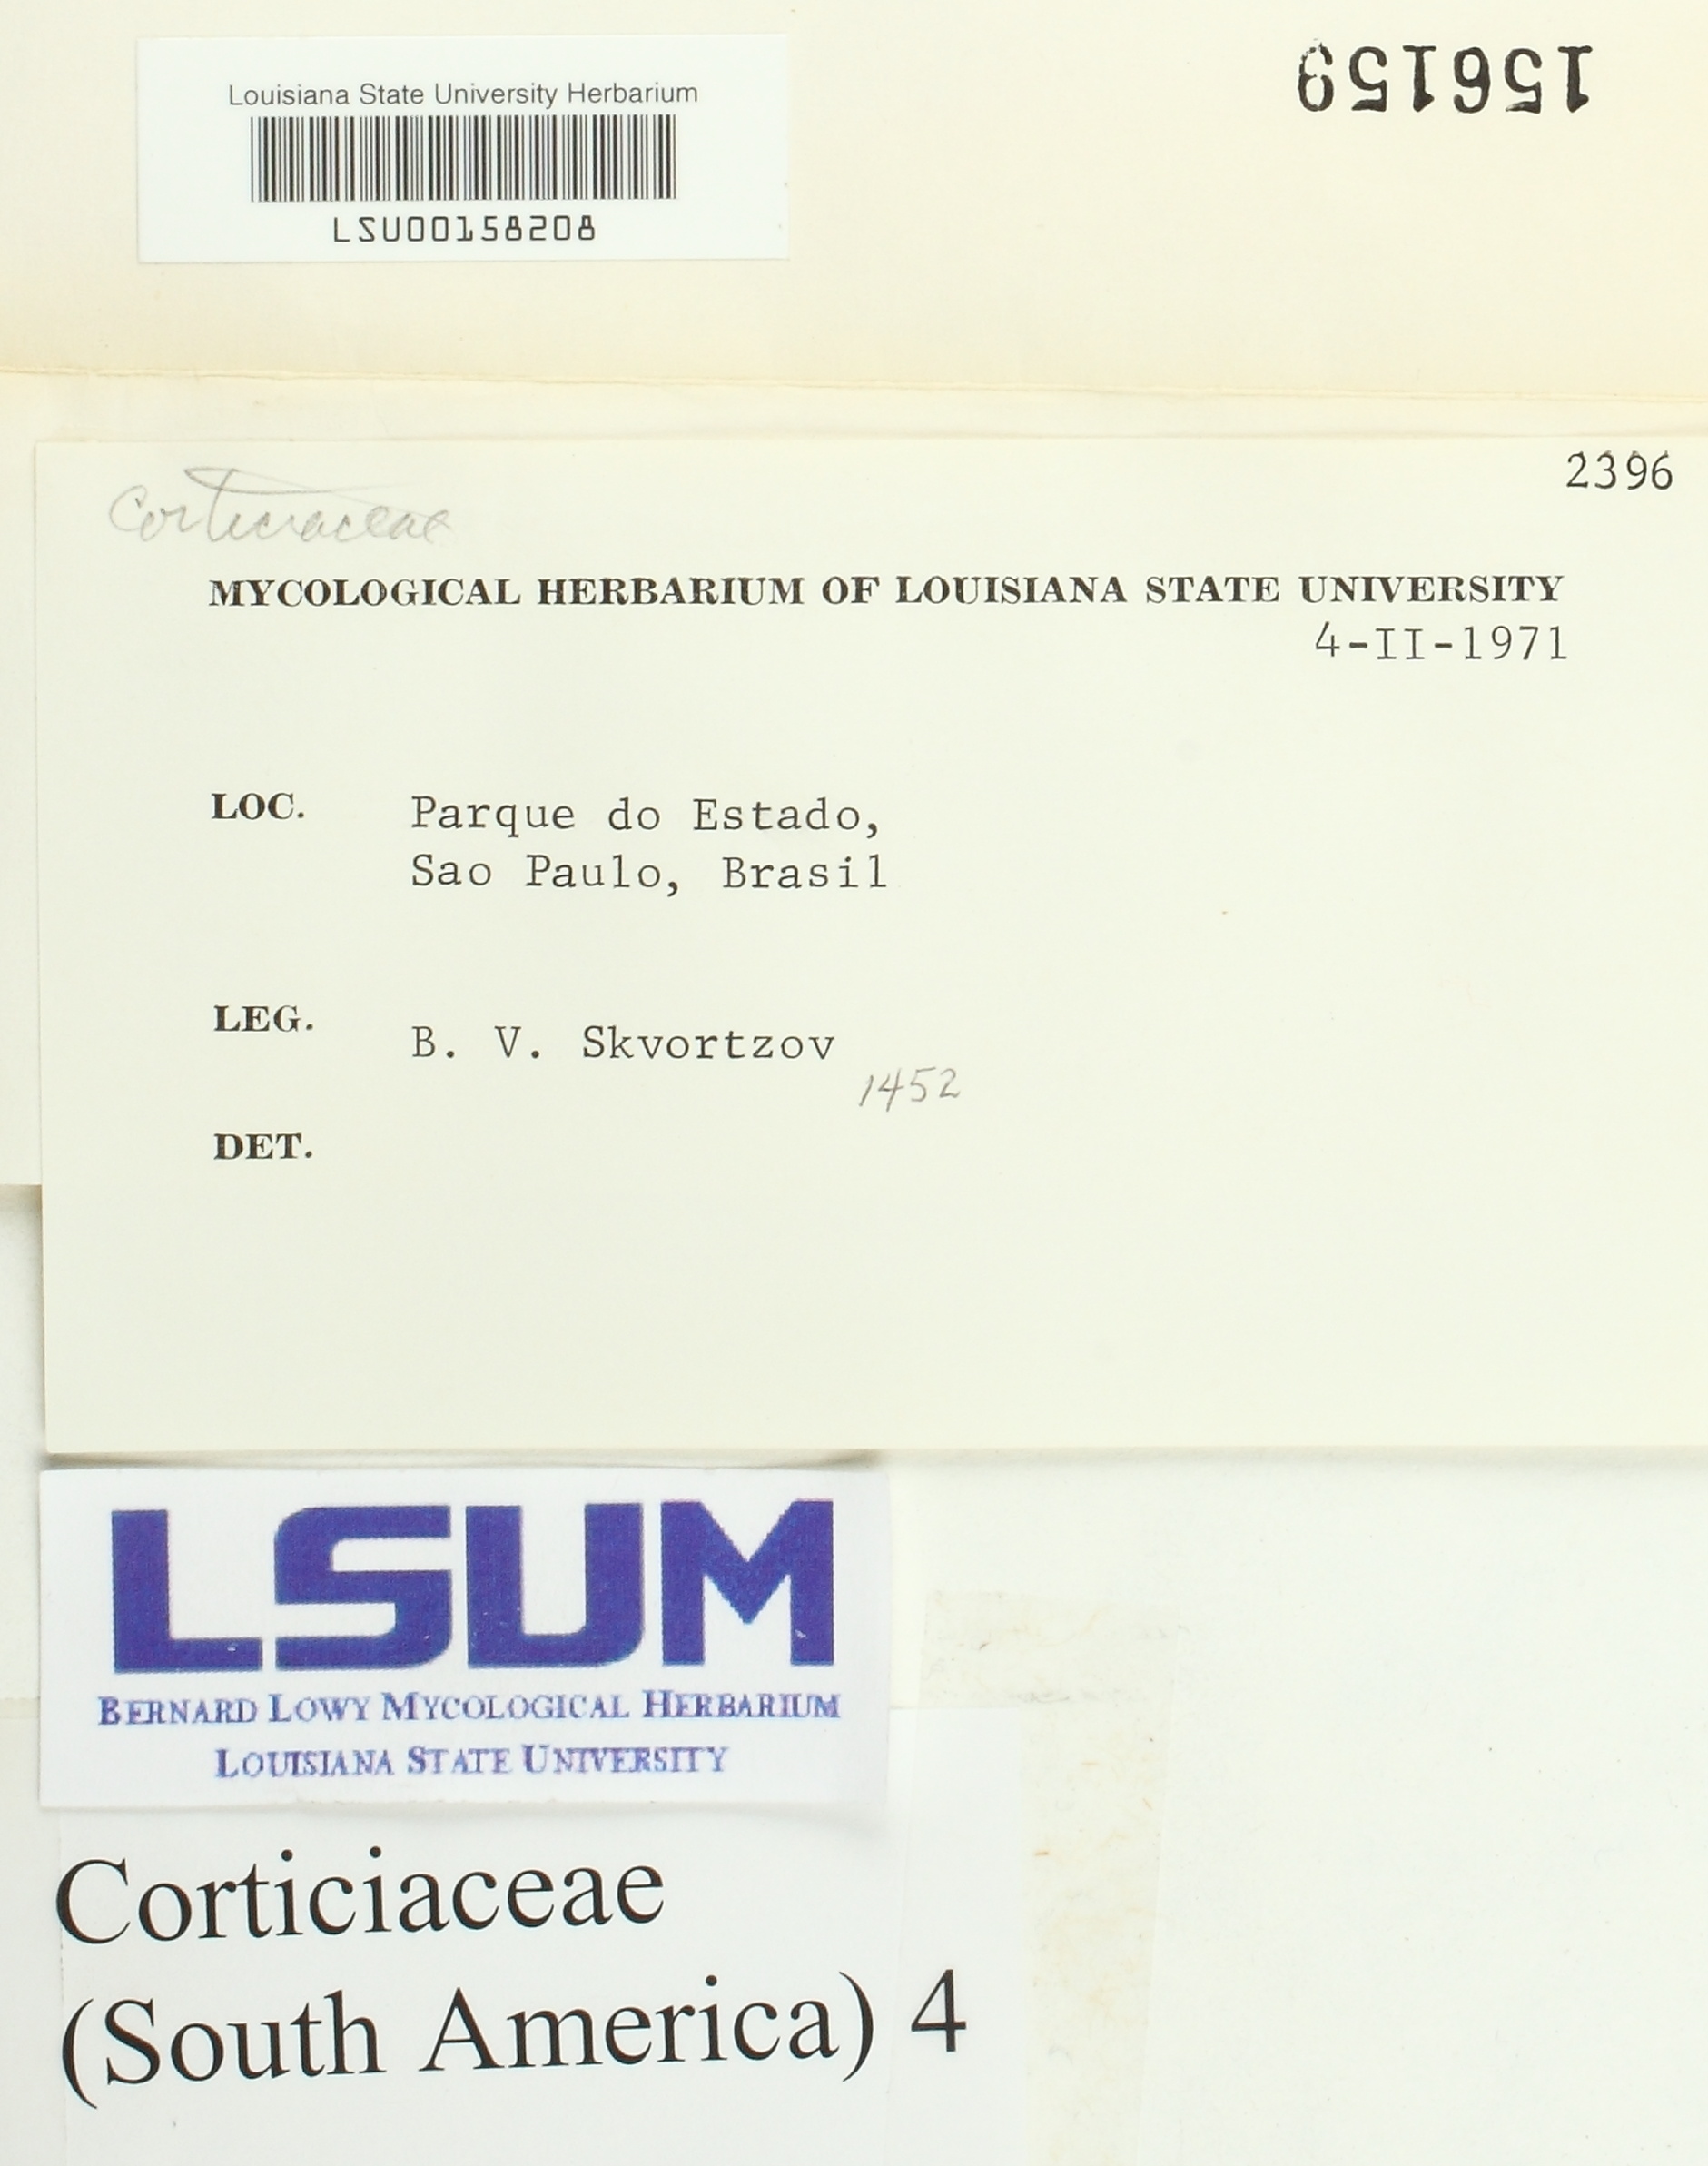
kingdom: Fungi
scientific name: Fungi
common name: Fungi
